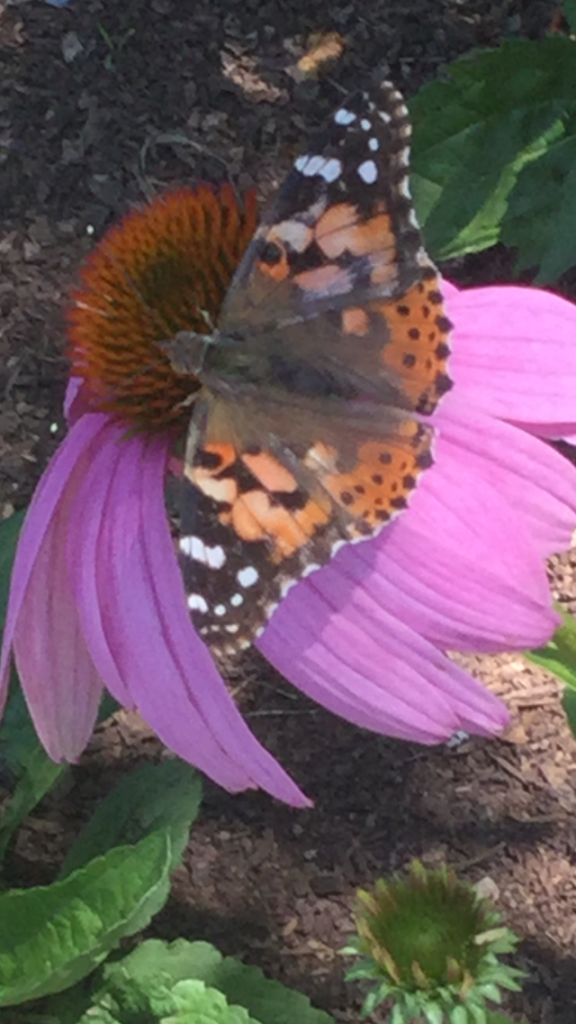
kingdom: Animalia
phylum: Arthropoda
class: Insecta
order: Lepidoptera
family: Nymphalidae
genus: Vanessa
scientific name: Vanessa cardui
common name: Painted Lady
